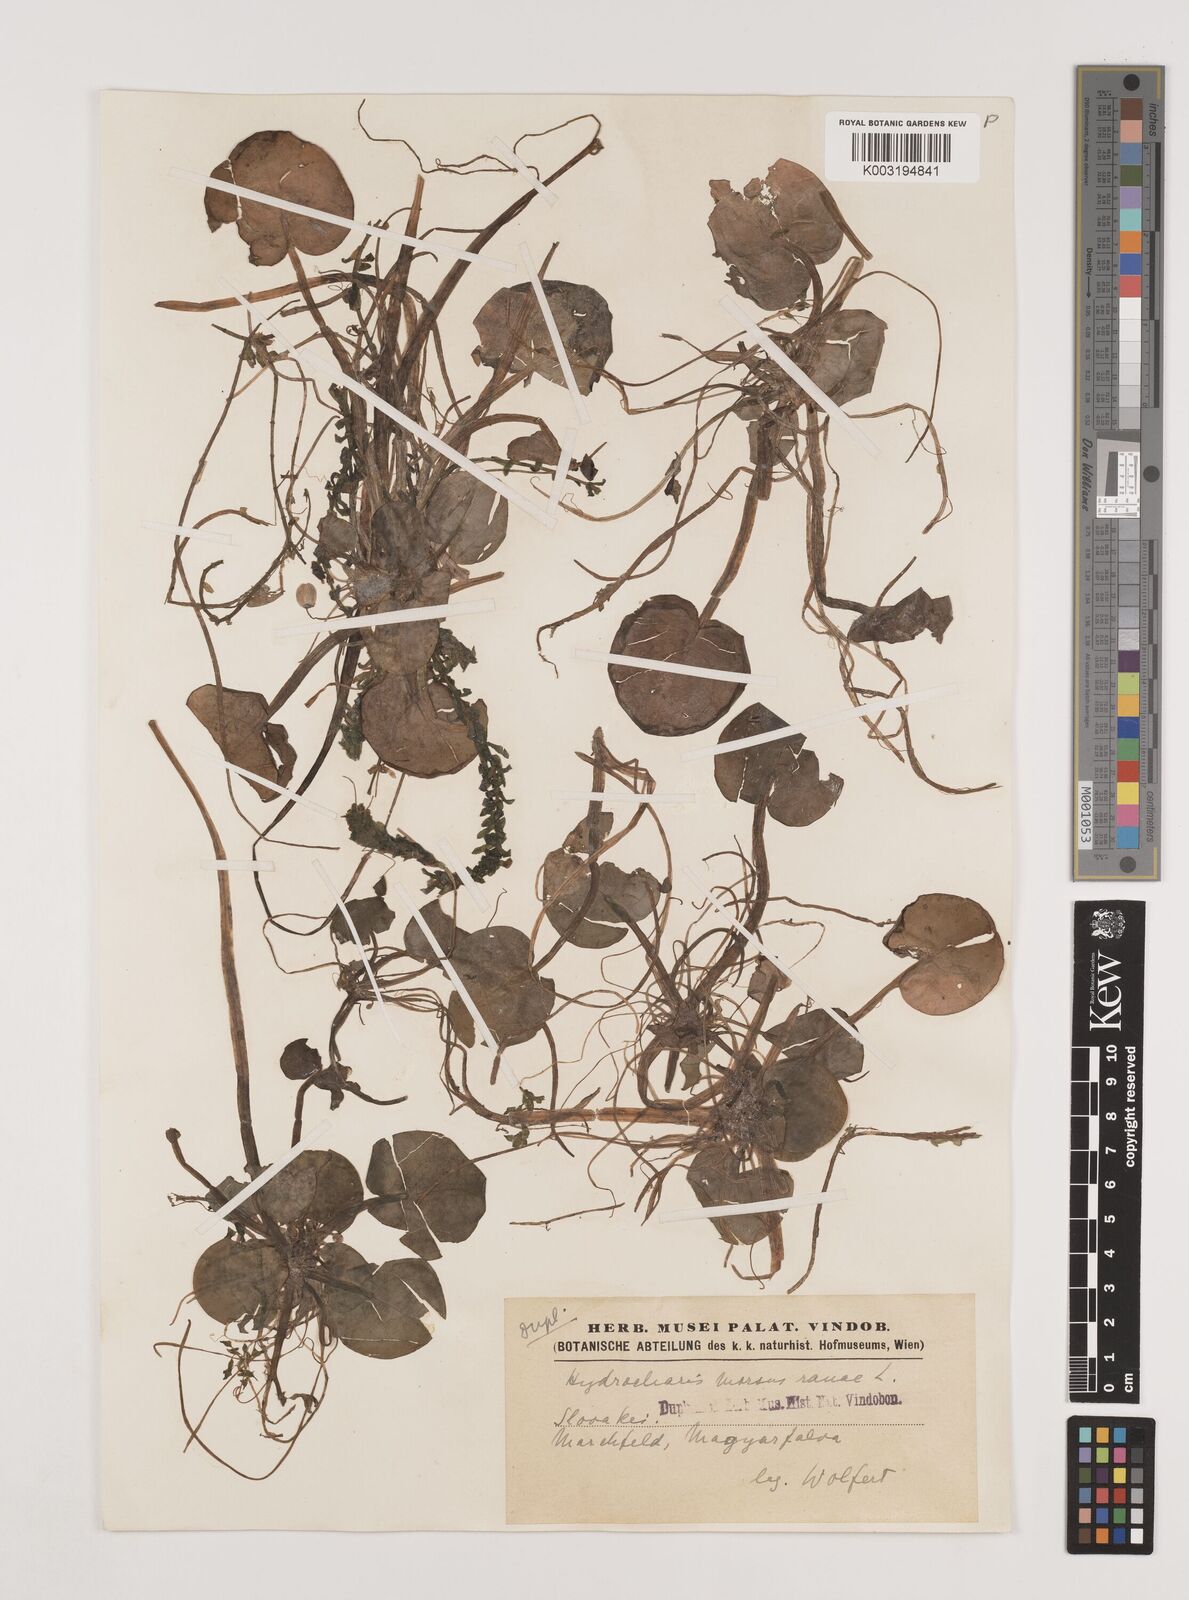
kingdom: Plantae
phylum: Tracheophyta
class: Liliopsida
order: Alismatales
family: Hydrocharitaceae
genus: Hydrocharis
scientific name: Hydrocharis morsus-ranae
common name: Frogbit
